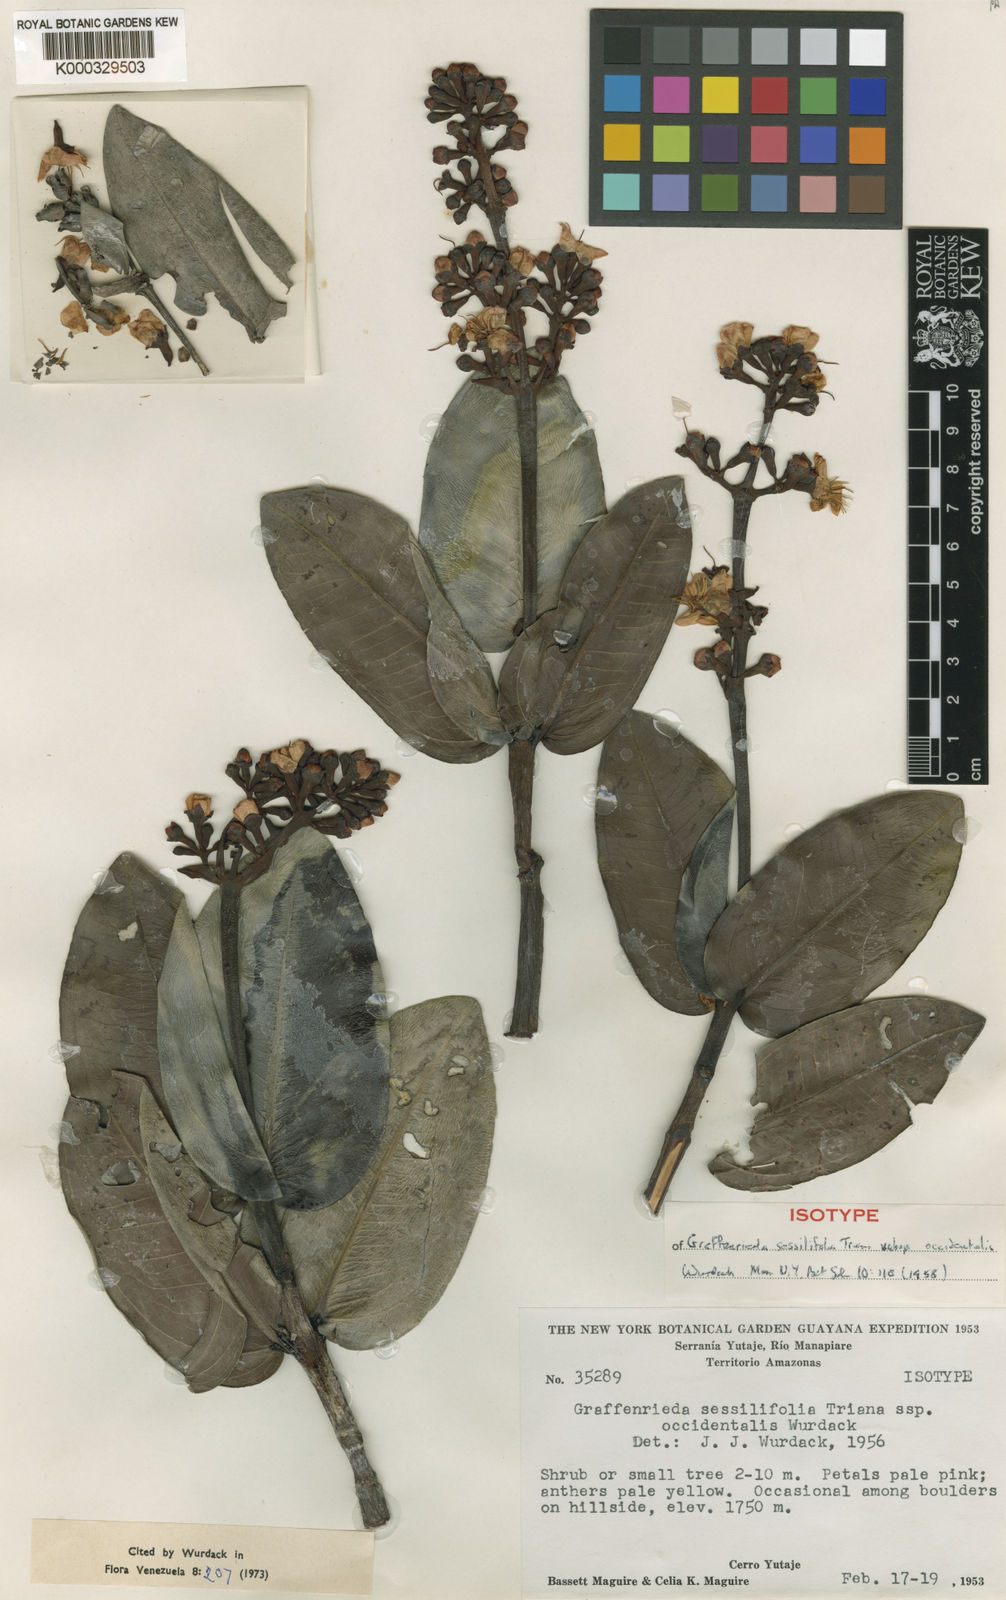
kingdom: Plantae
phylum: Tracheophyta
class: Magnoliopsida
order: Myrtales
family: Melastomataceae
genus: Graffenrieda
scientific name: Graffenrieda sessilifolia
